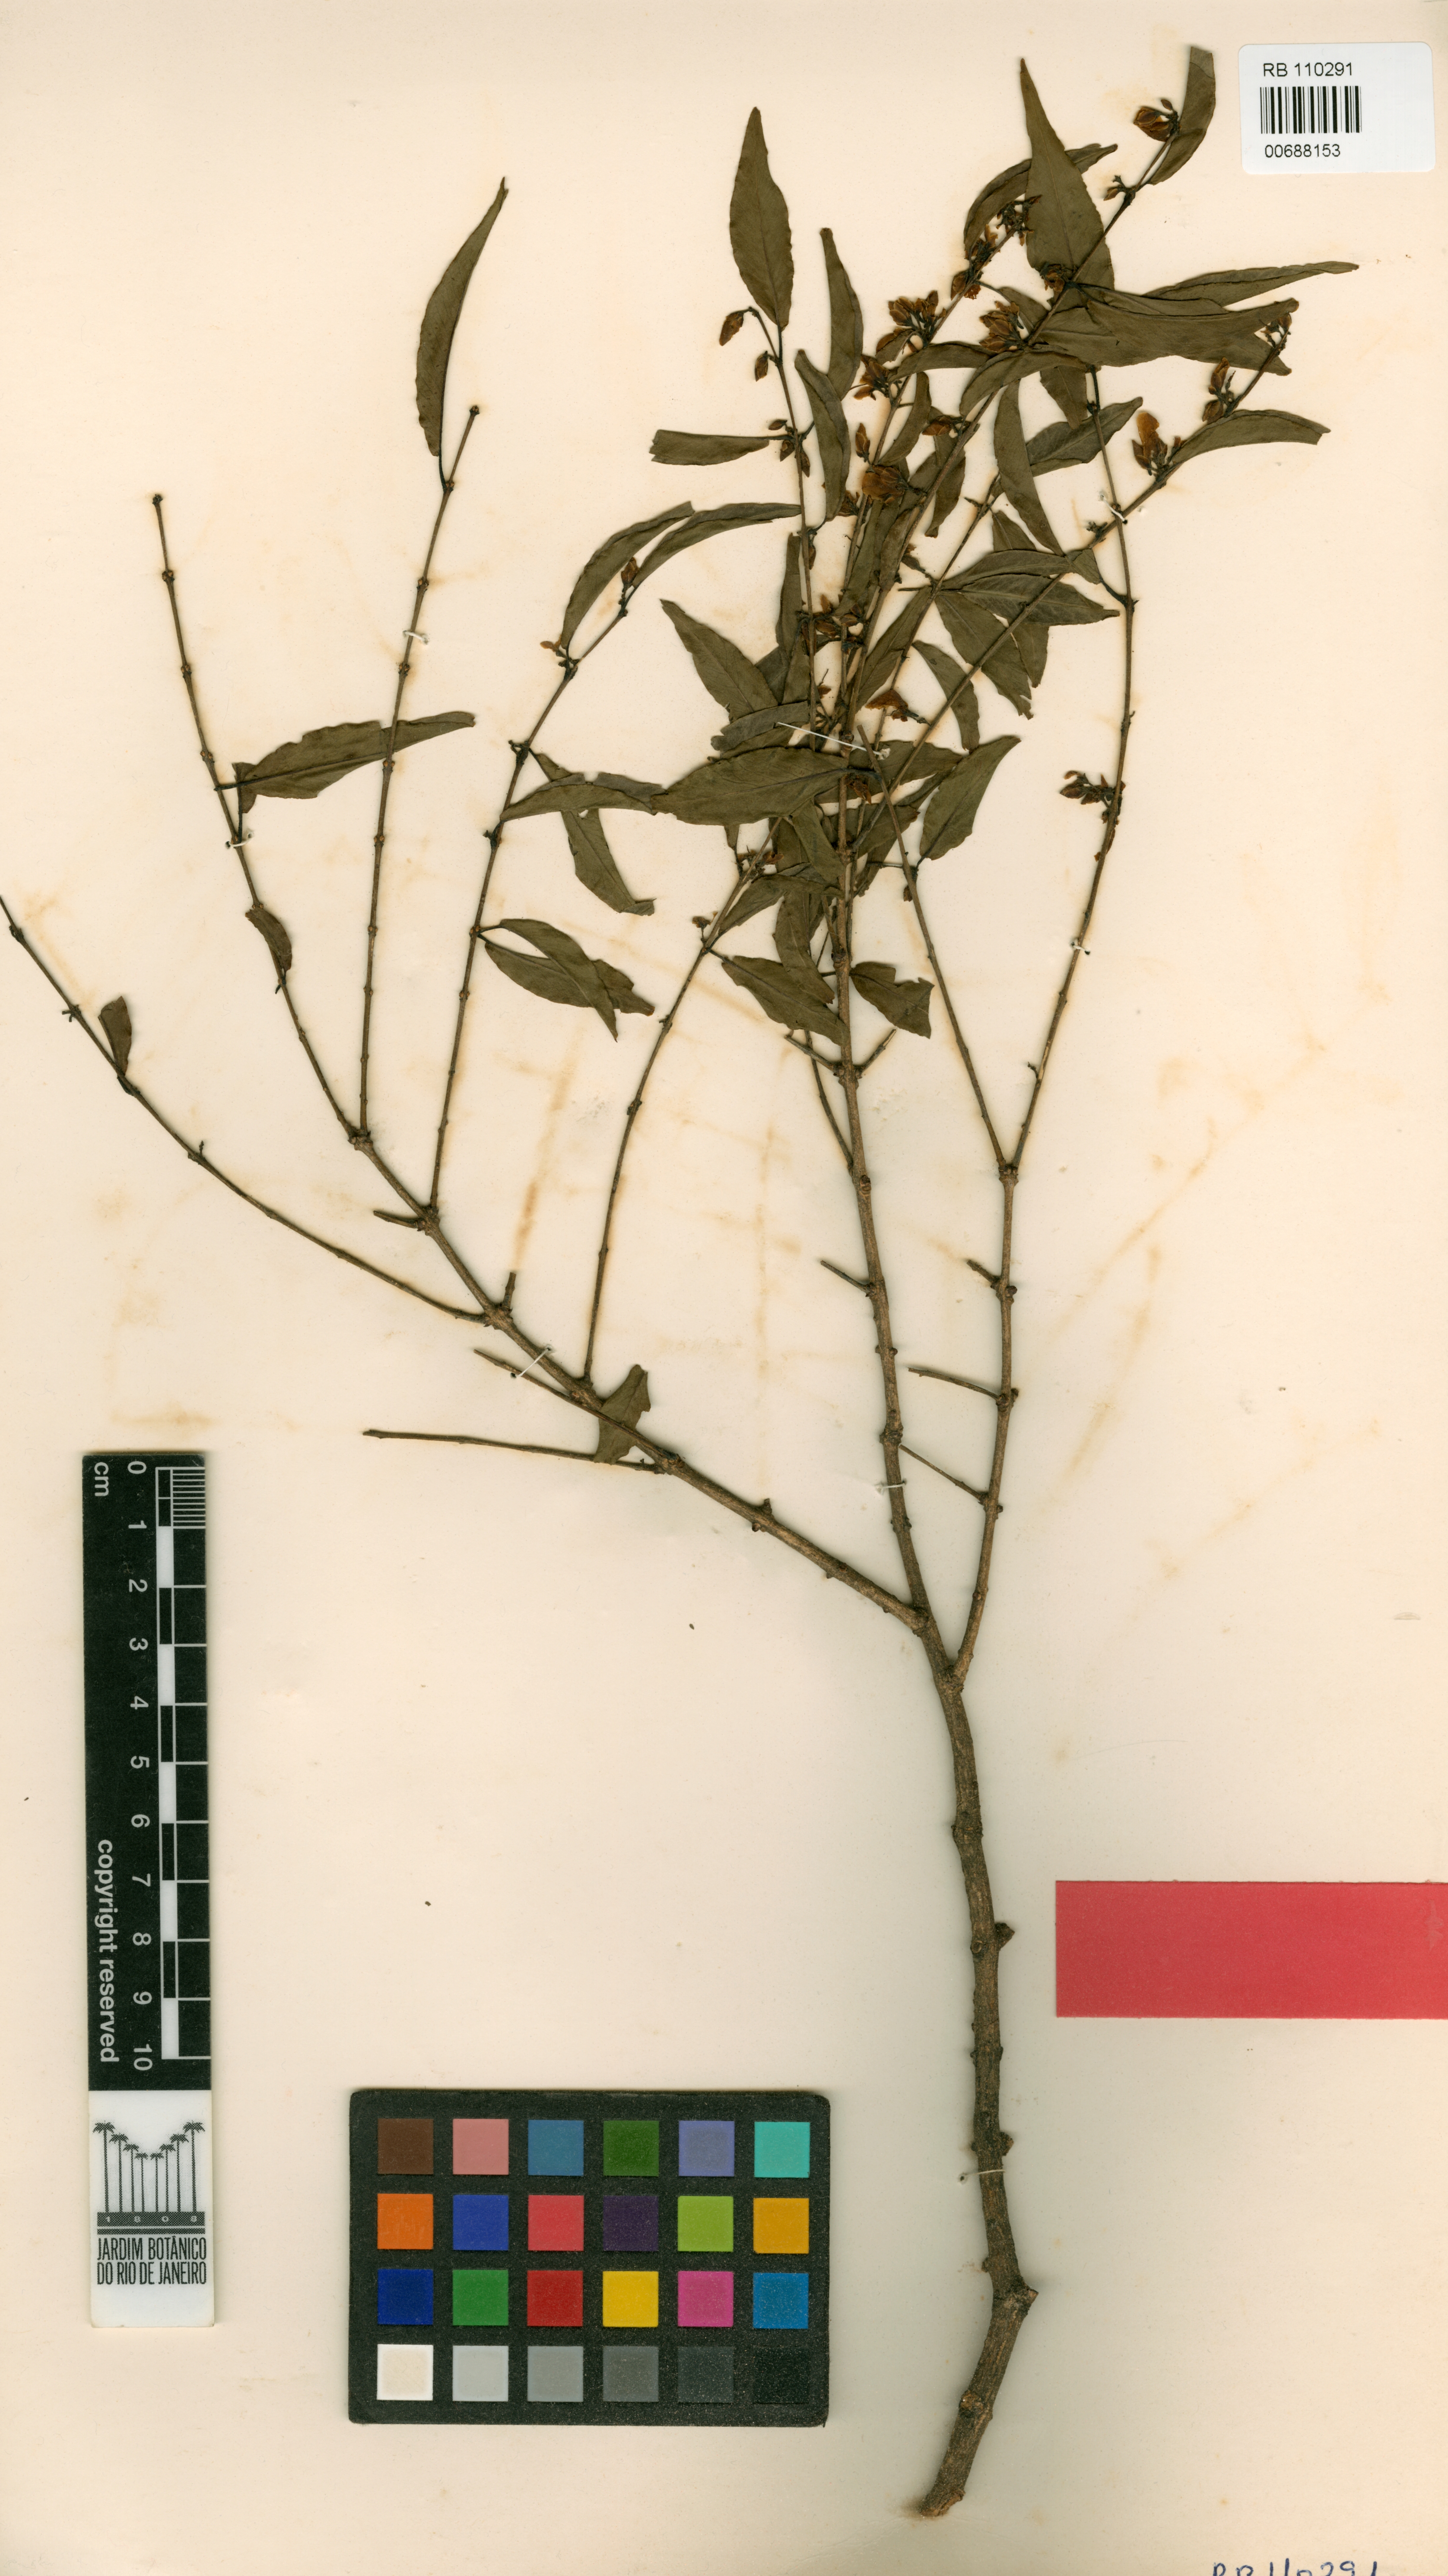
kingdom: Plantae
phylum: Tracheophyta
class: Magnoliopsida
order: Myrtales
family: Vochysiaceae
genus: Callisthene
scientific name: Callisthene dryadum
